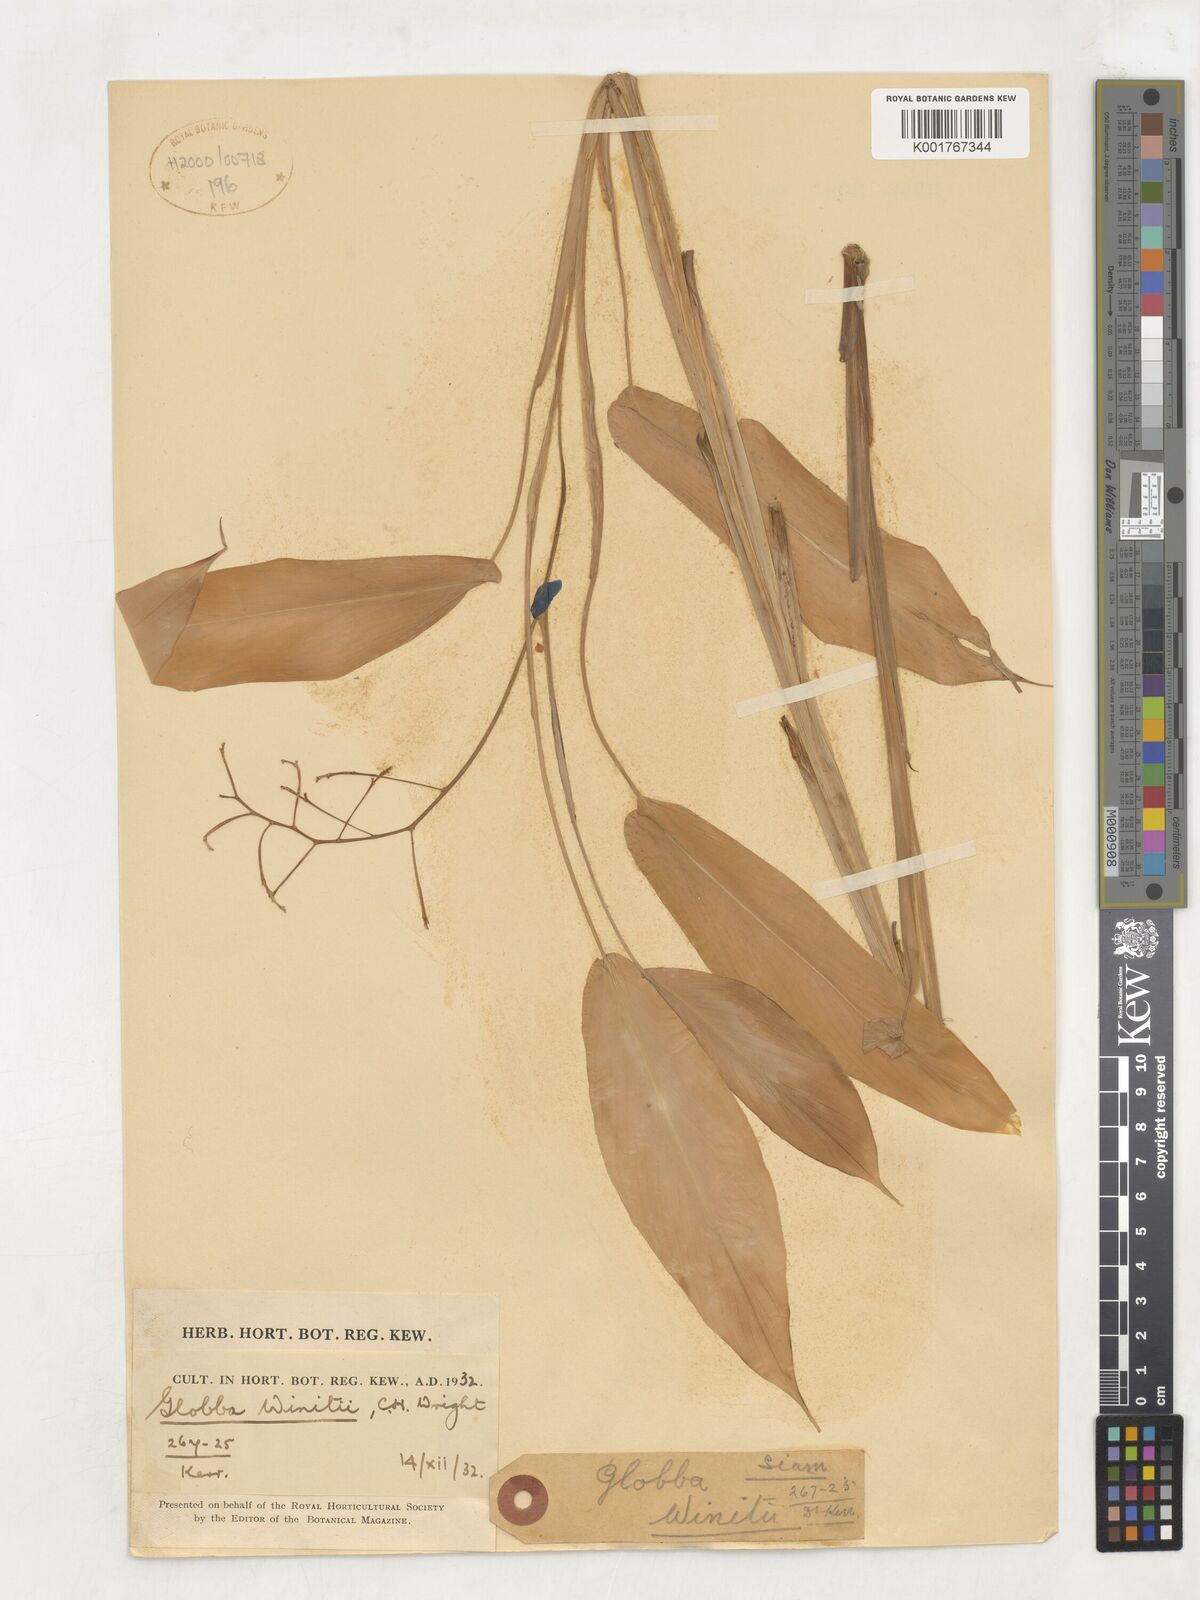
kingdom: Plantae
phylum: Tracheophyta
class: Liliopsida
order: Zingiberales
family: Zingiberaceae
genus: Globba
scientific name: Globba winitii
